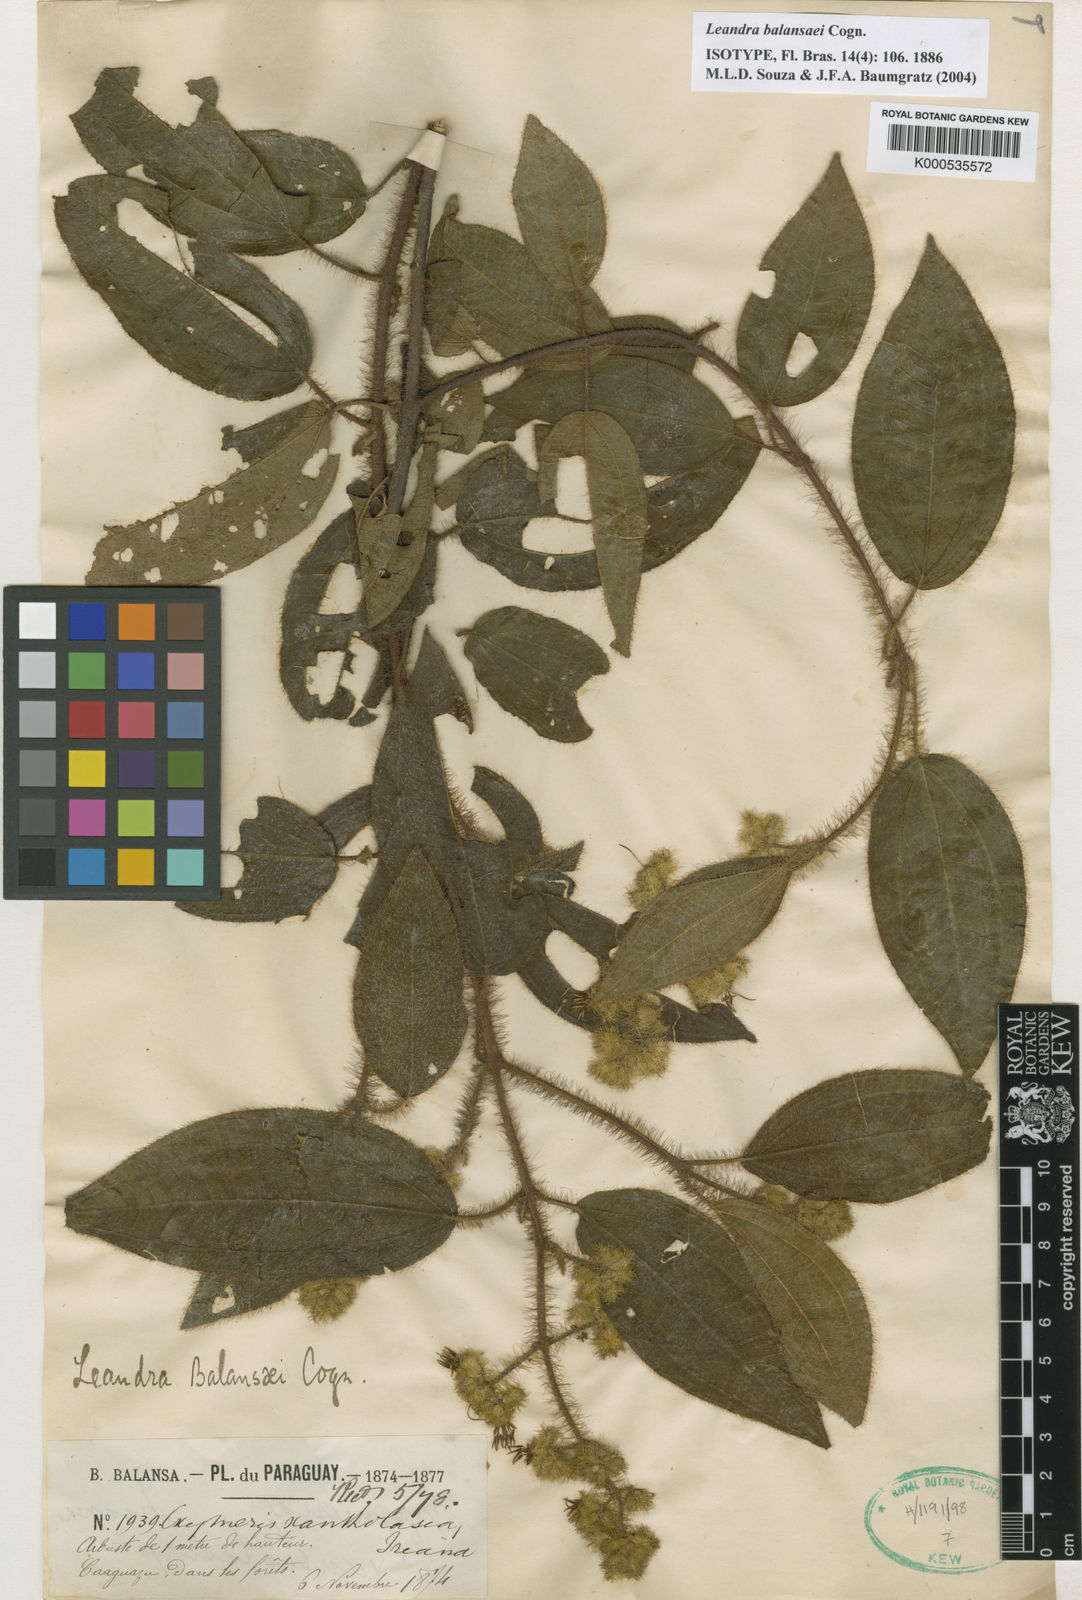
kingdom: Plantae
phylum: Tracheophyta
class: Magnoliopsida
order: Myrtales
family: Melastomataceae
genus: Miconia
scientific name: Miconia
